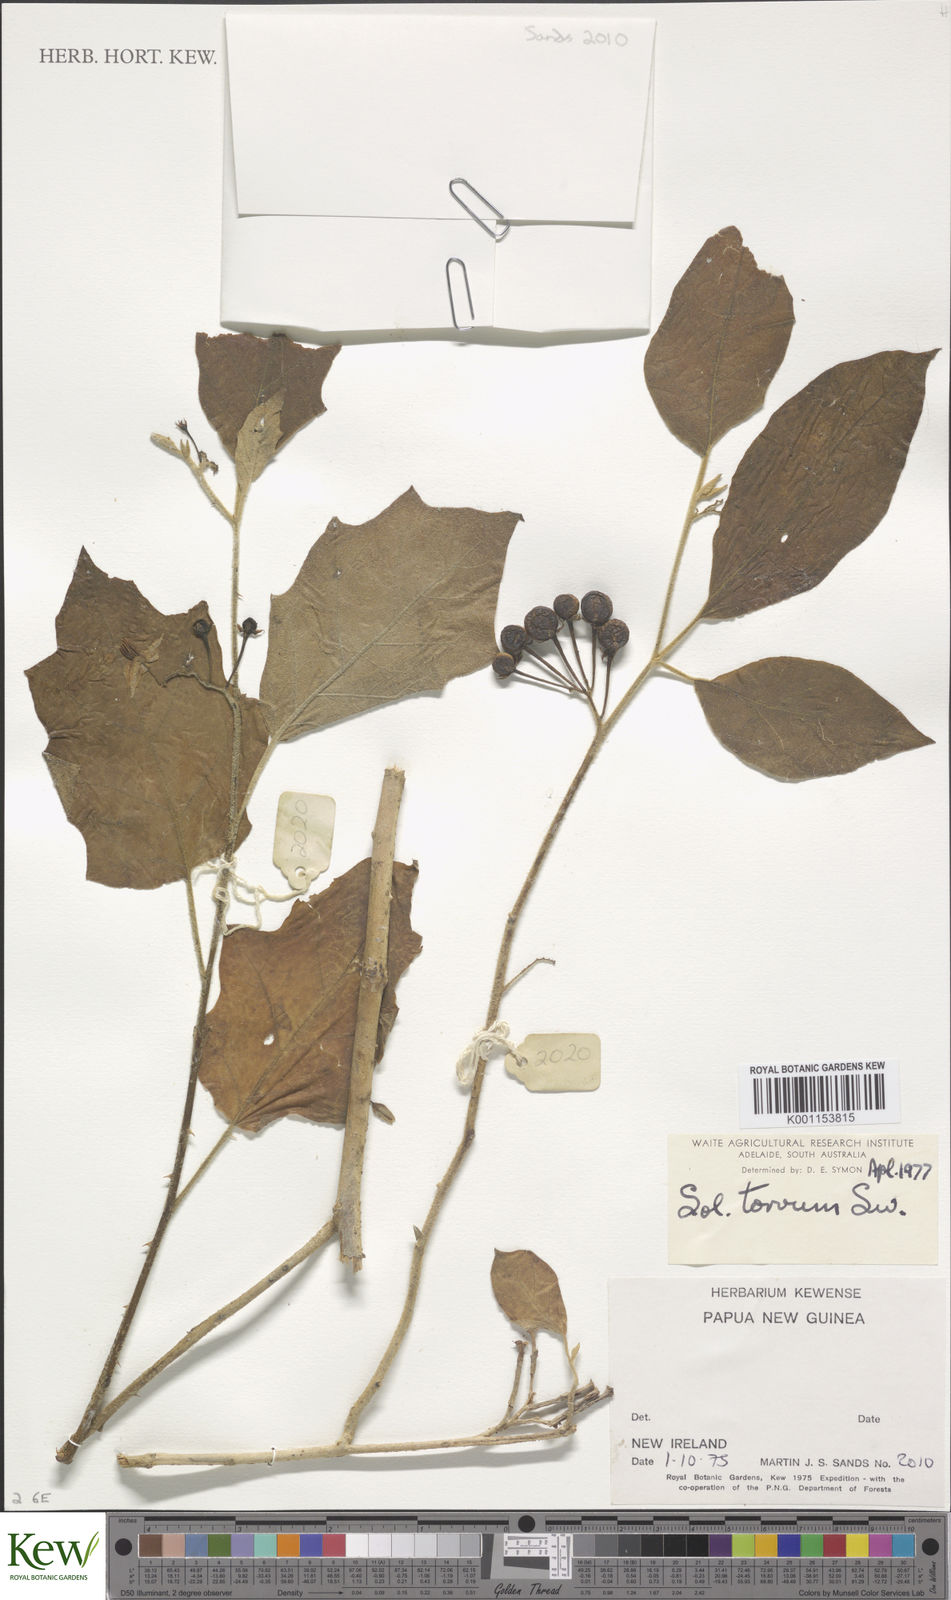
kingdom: Plantae
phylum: Tracheophyta
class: Magnoliopsida
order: Solanales
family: Solanaceae
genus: Solanum
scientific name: Solanum torvum
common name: Turkey berry
